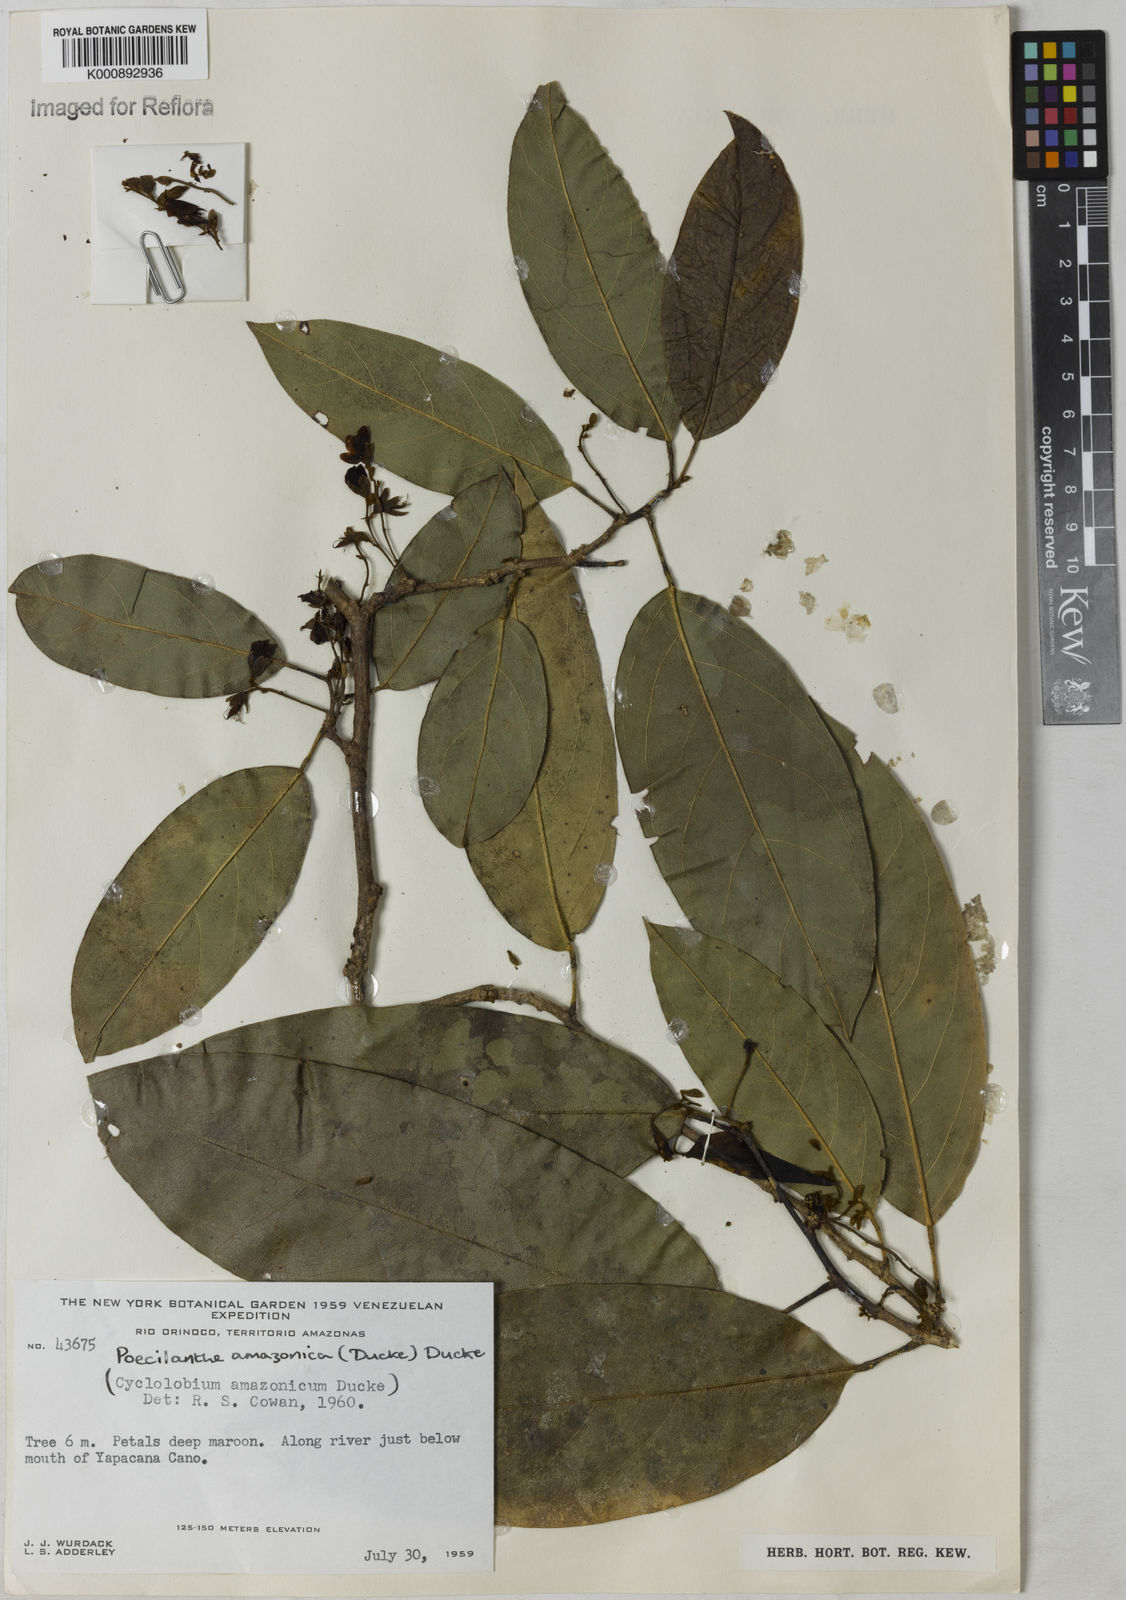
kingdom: Plantae
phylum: Tracheophyta
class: Magnoliopsida
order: Fabales
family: Fabaceae
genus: Limadendron
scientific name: Limadendron amazonicum
